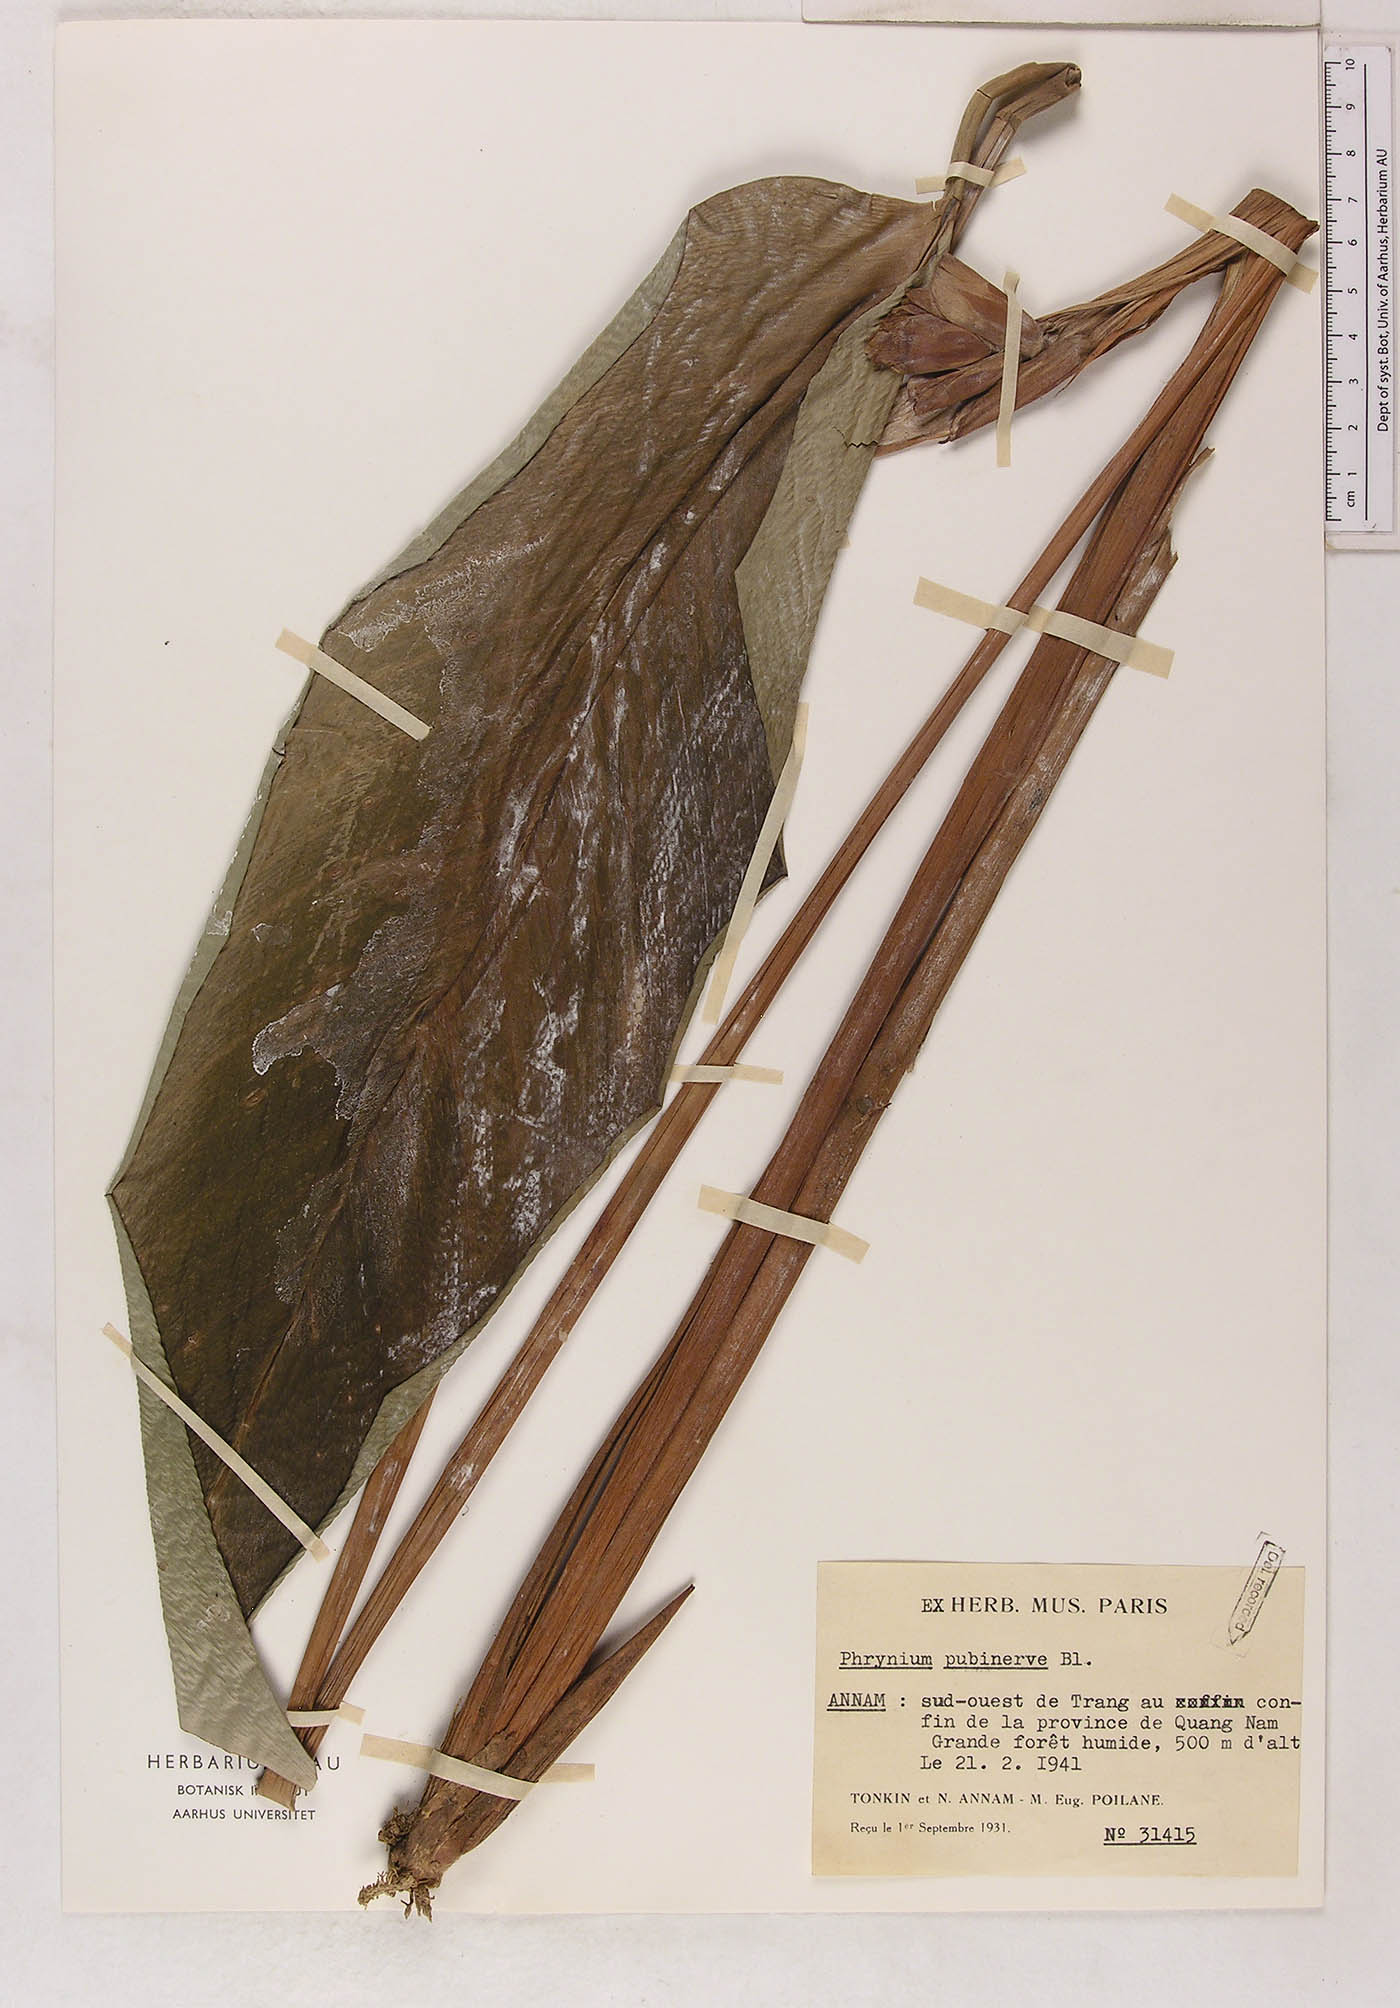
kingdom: Plantae
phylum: Tracheophyta
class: Liliopsida
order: Zingiberales
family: Marantaceae
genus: Phrynium
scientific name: Phrynium pubinerve
